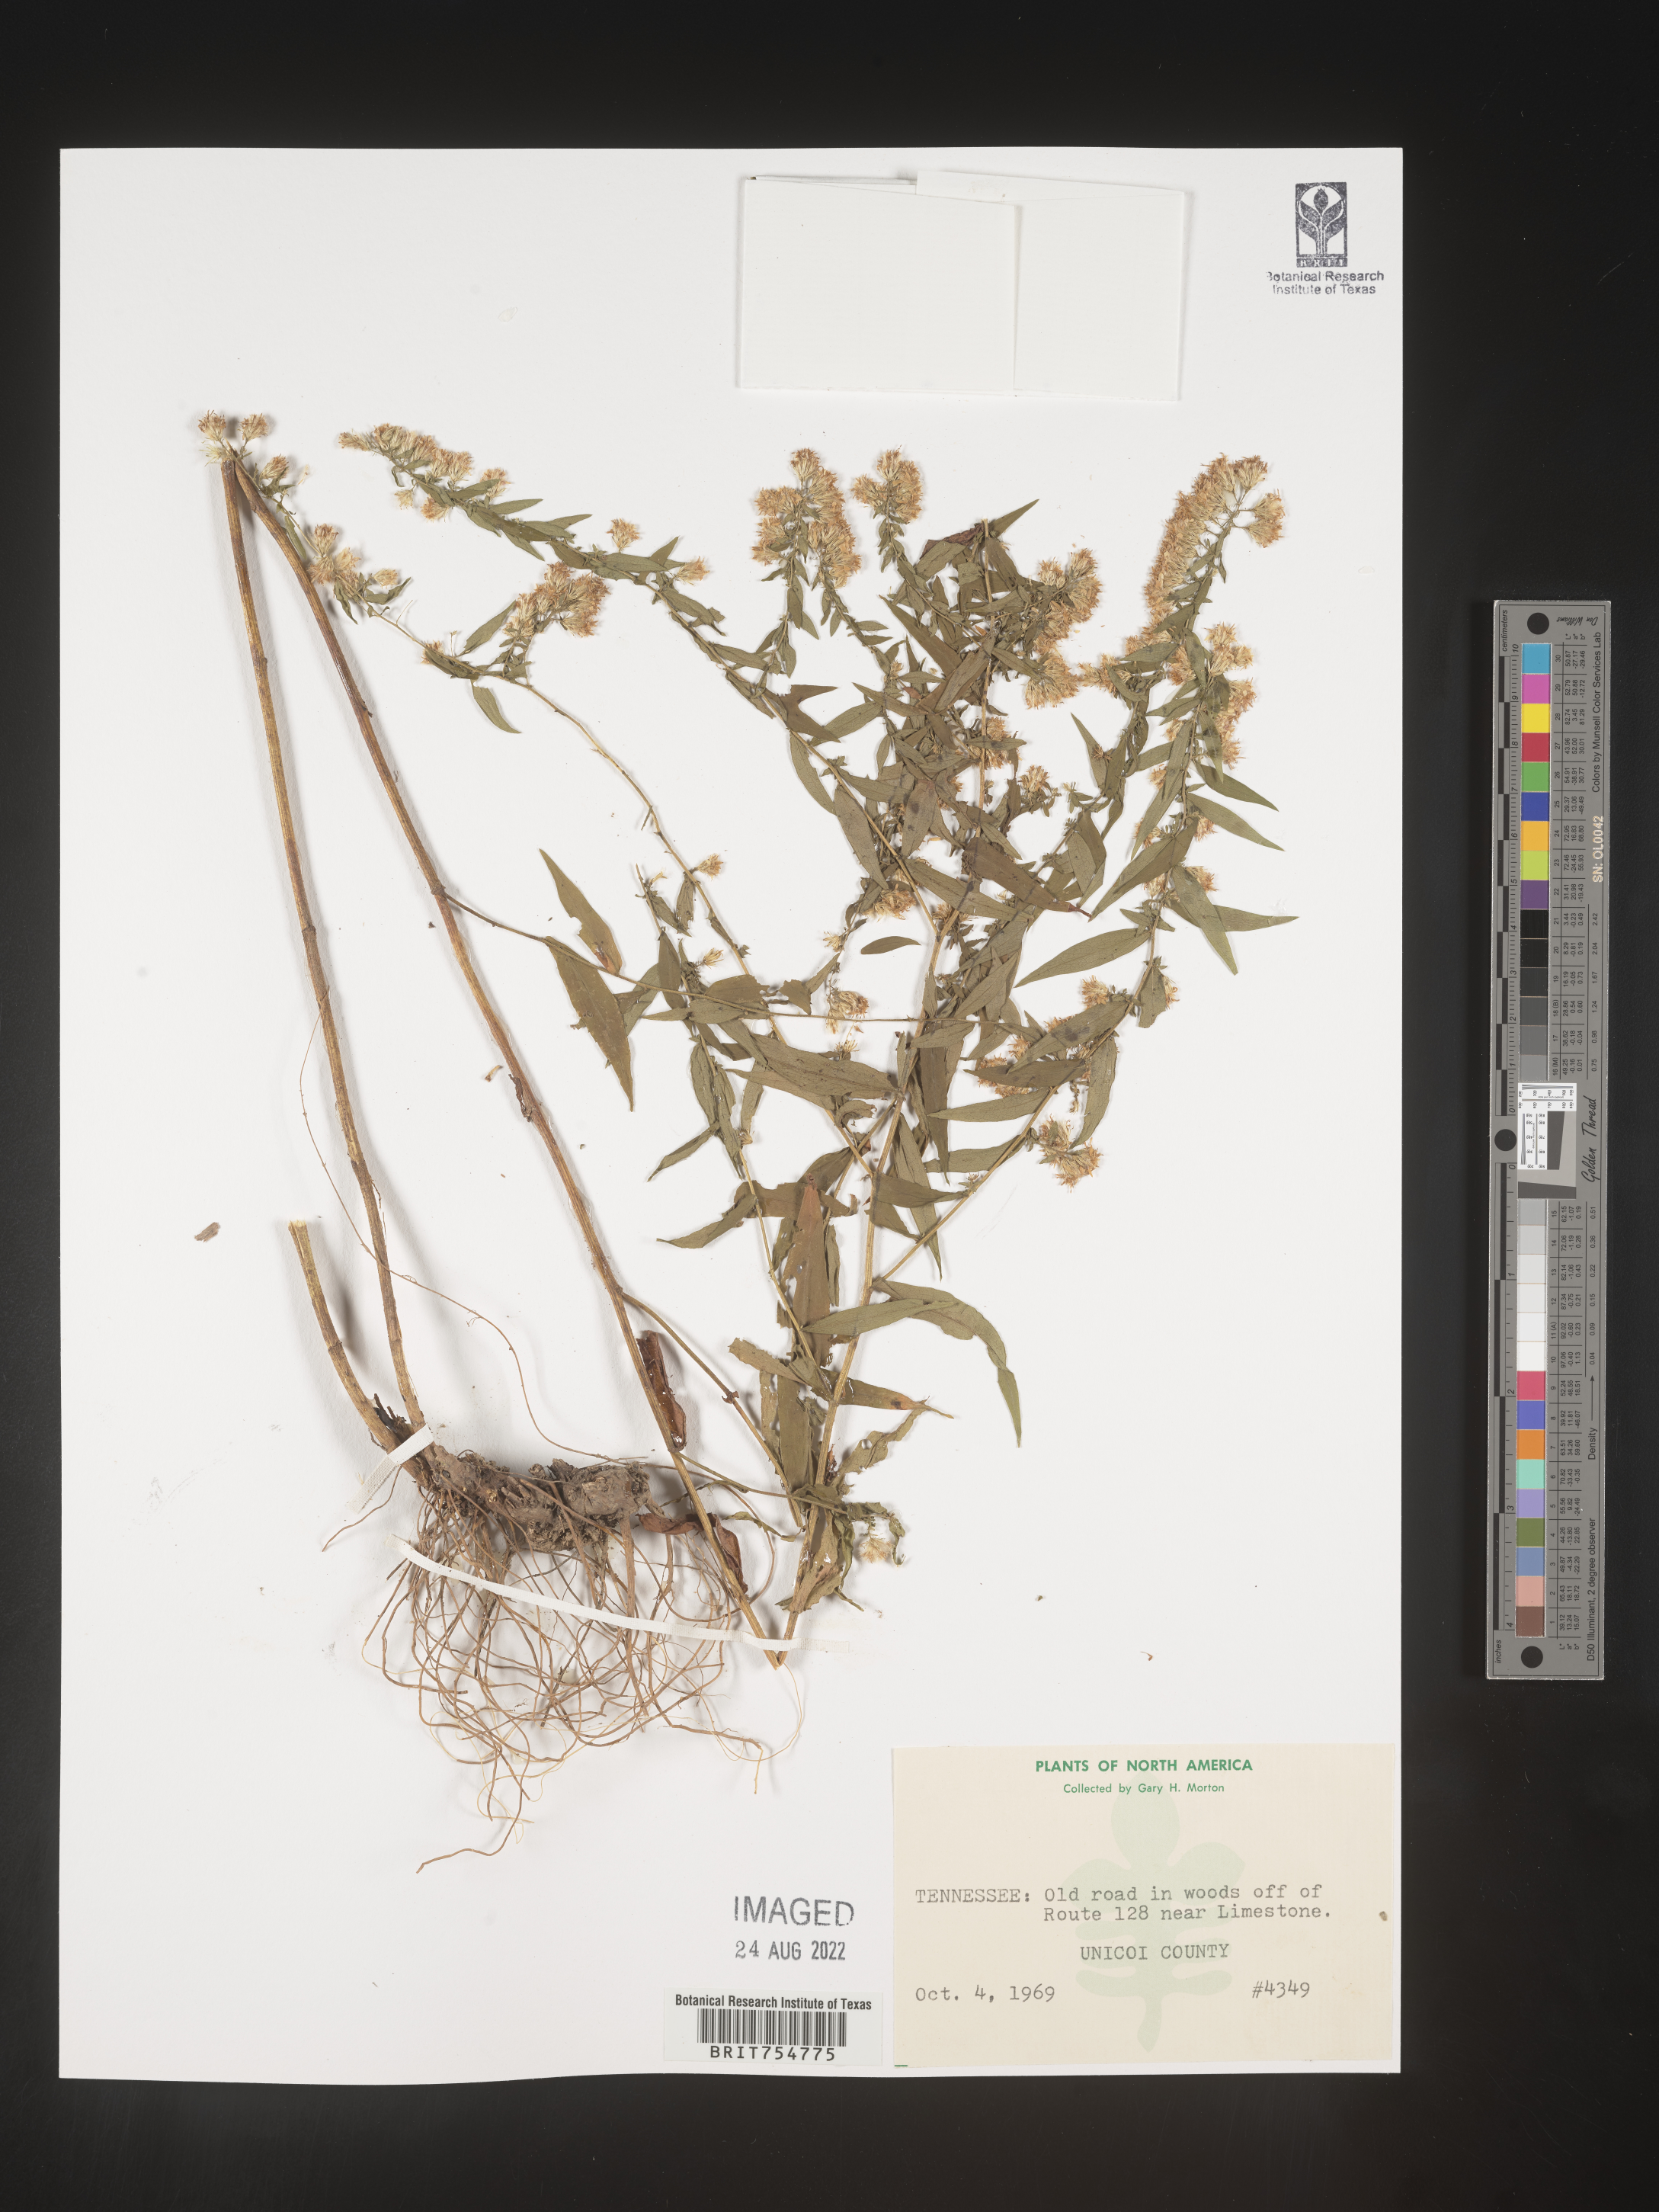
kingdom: Plantae
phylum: Tracheophyta
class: Magnoliopsida
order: Asterales
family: Asteraceae
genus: Symphyotrichum
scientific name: Symphyotrichum
